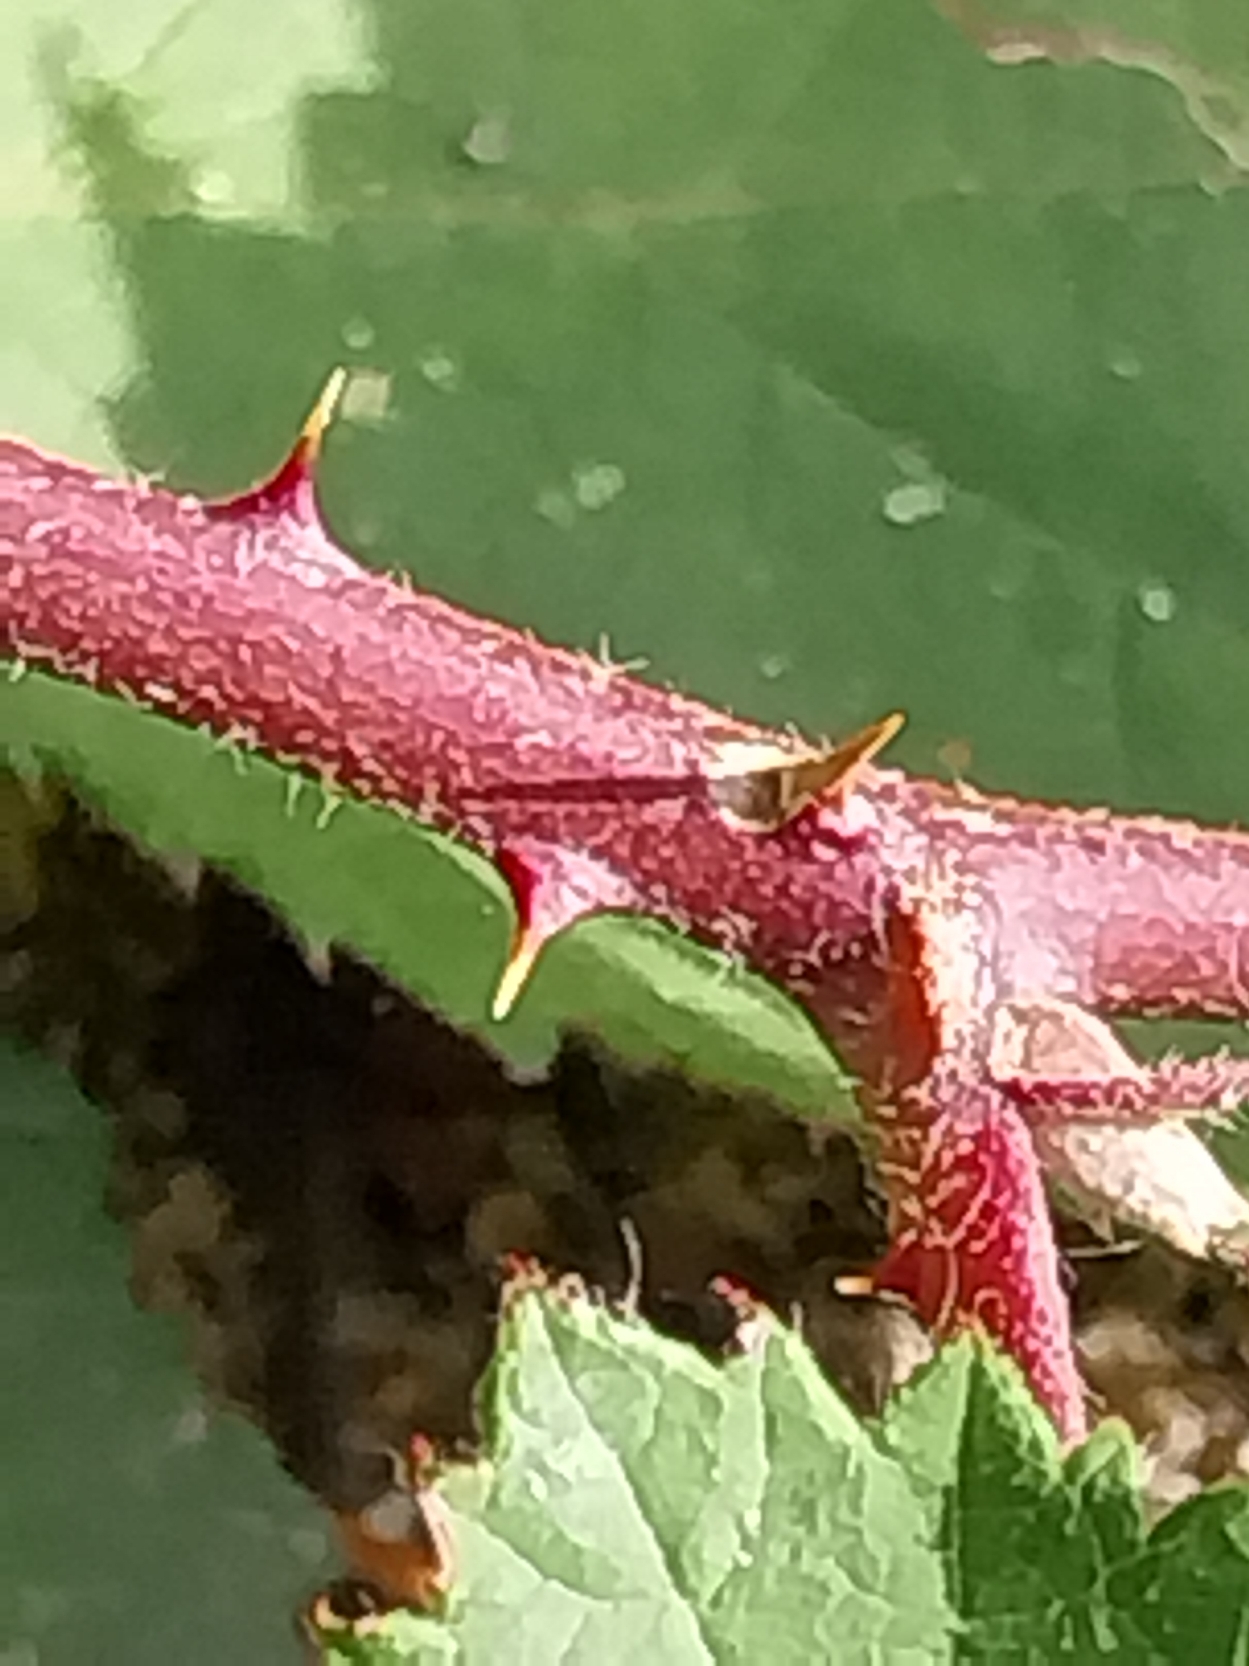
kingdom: Plantae
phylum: Tracheophyta
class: Magnoliopsida
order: Rosales
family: Rosaceae
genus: Rubus
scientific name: Rubus radula
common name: Rasperu brombær
